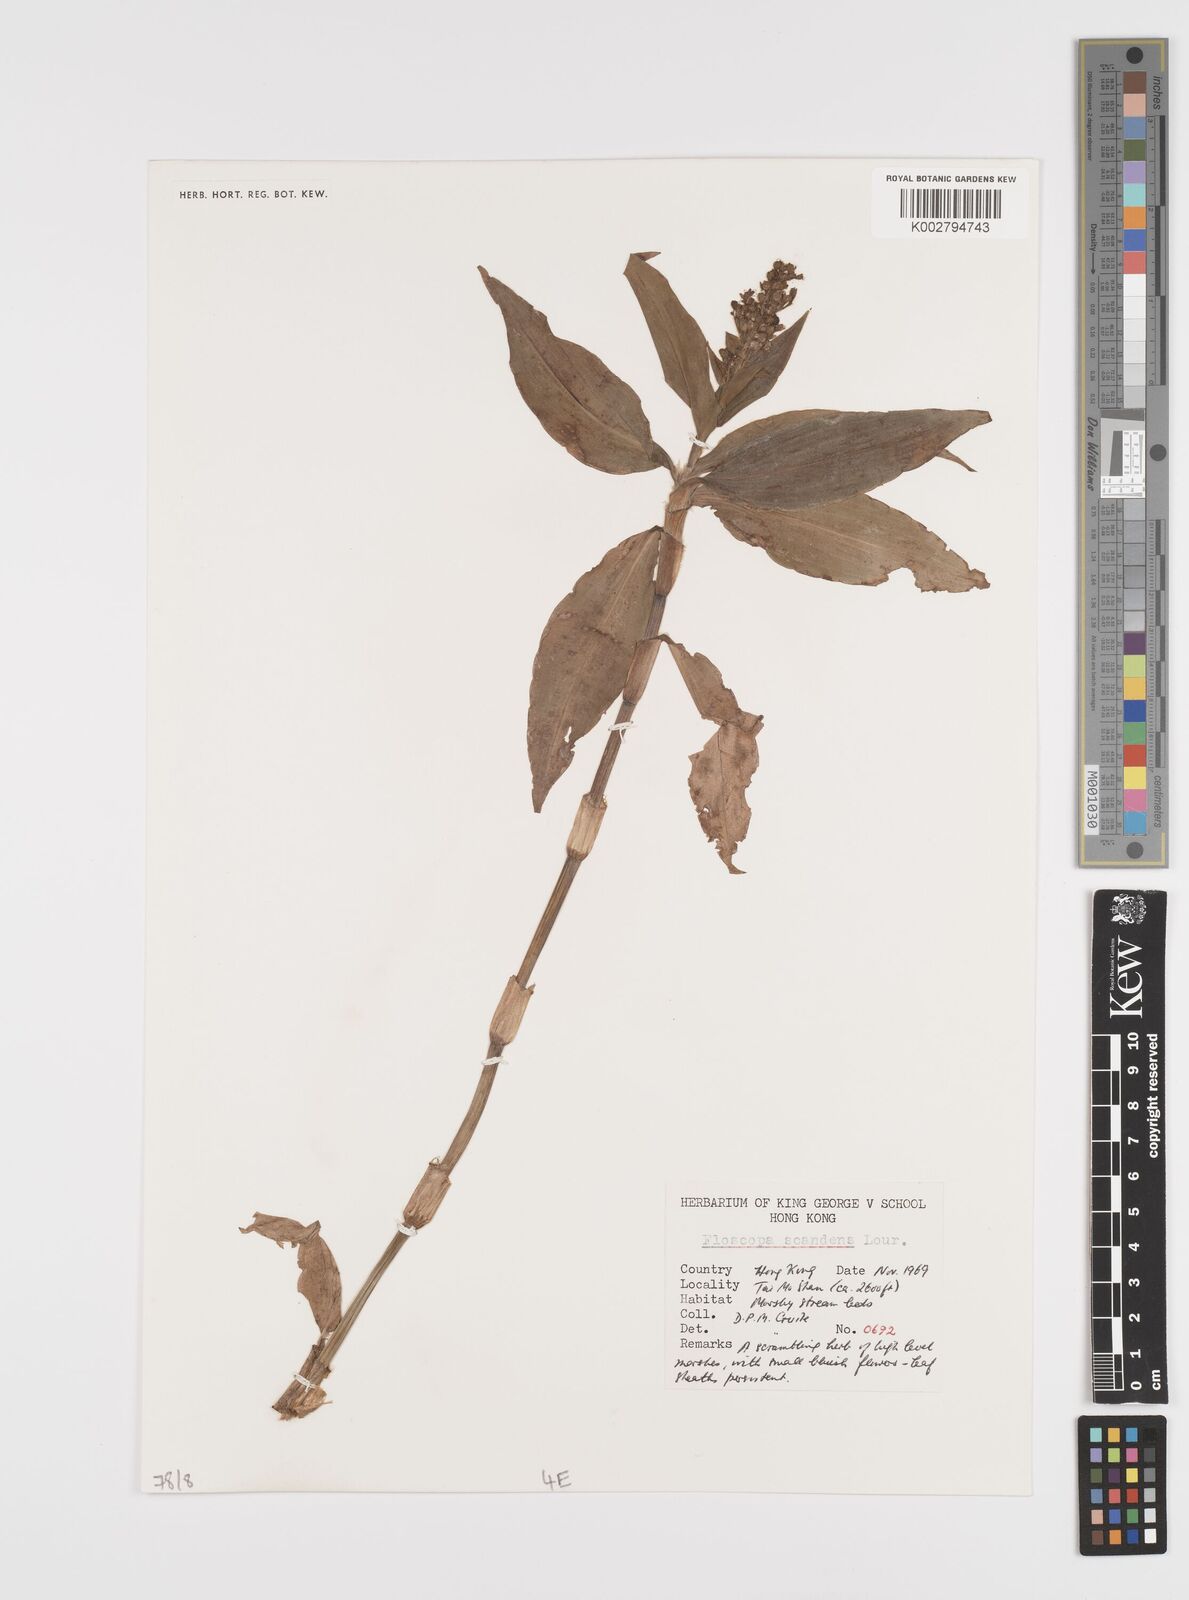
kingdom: Plantae
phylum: Tracheophyta
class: Liliopsida
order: Commelinales
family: Commelinaceae
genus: Floscopa
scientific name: Floscopa scandens
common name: Climbing flower cup
